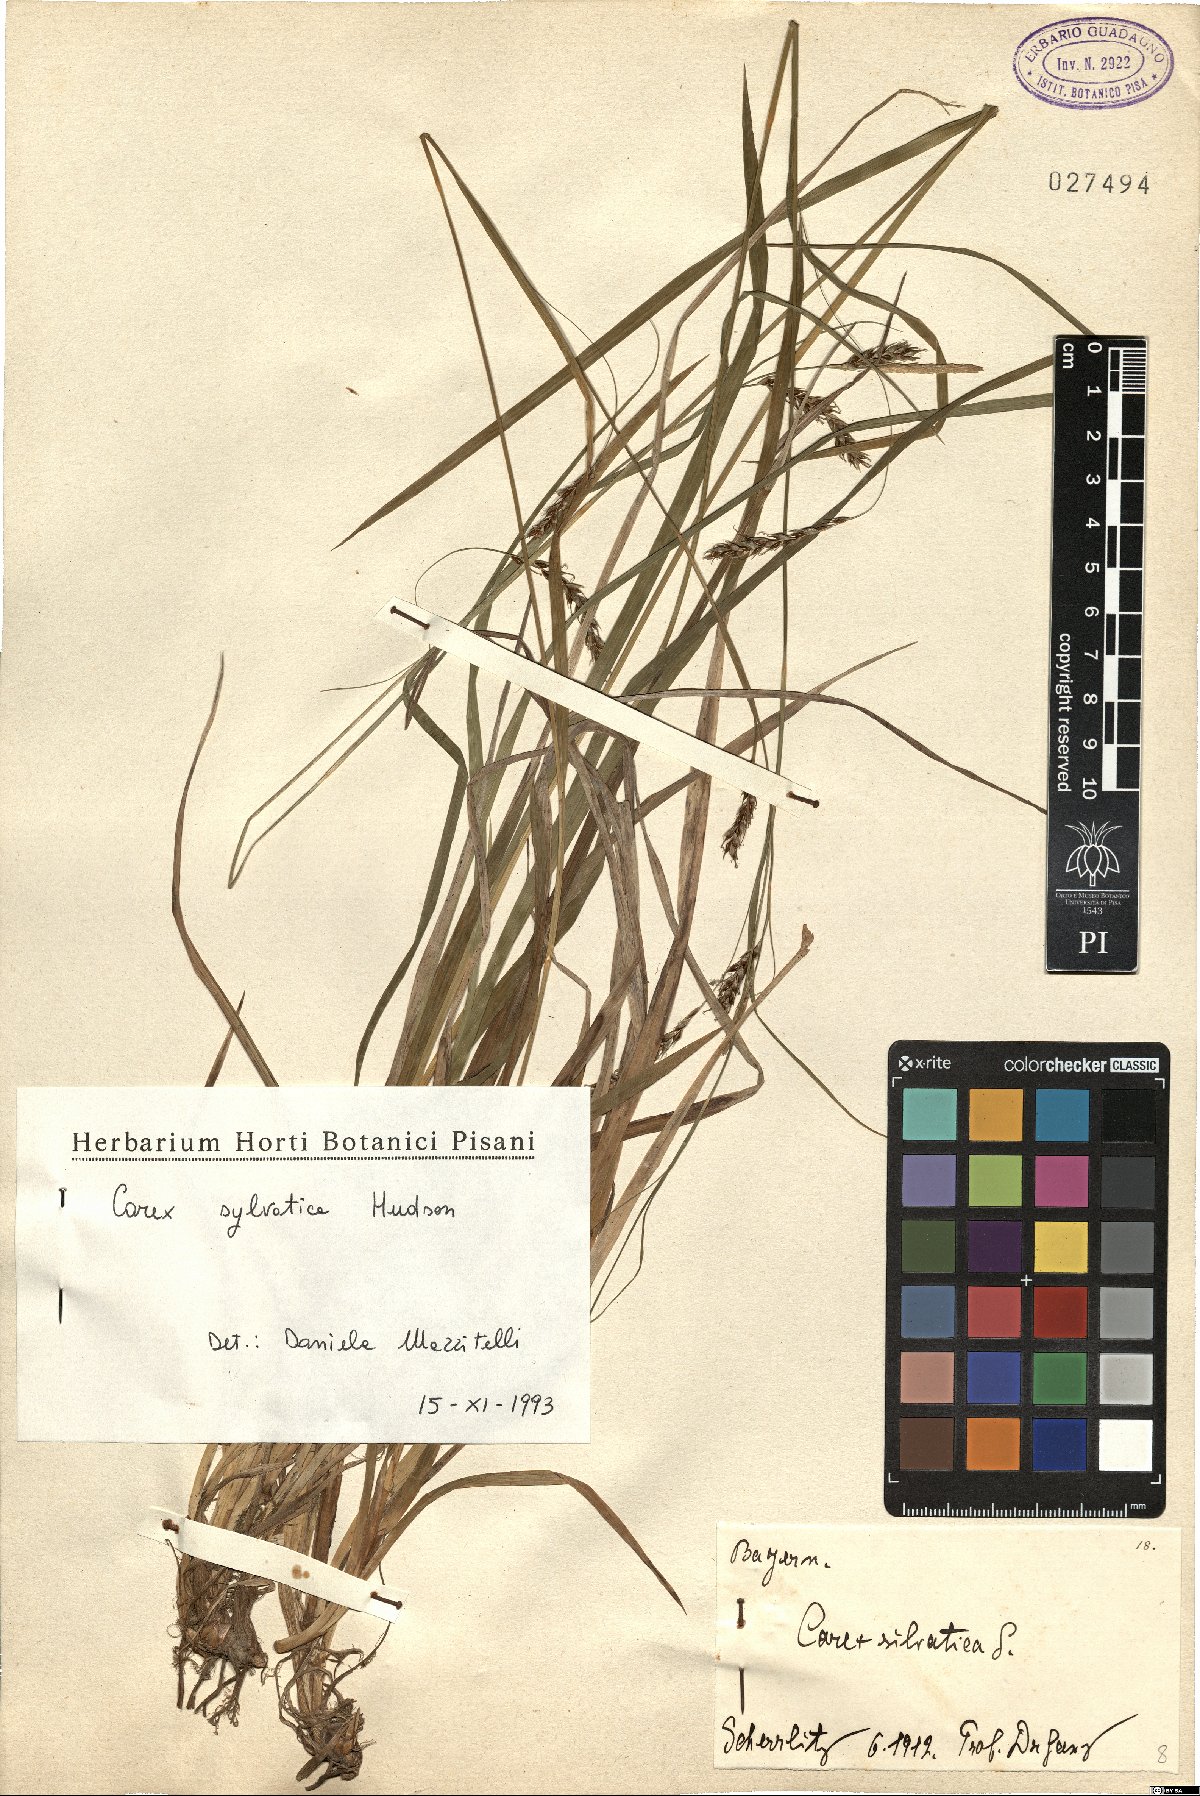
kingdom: Plantae
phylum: Tracheophyta
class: Liliopsida
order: Poales
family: Cyperaceae
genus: Carex
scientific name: Carex sylvatica
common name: Wood-sedge
